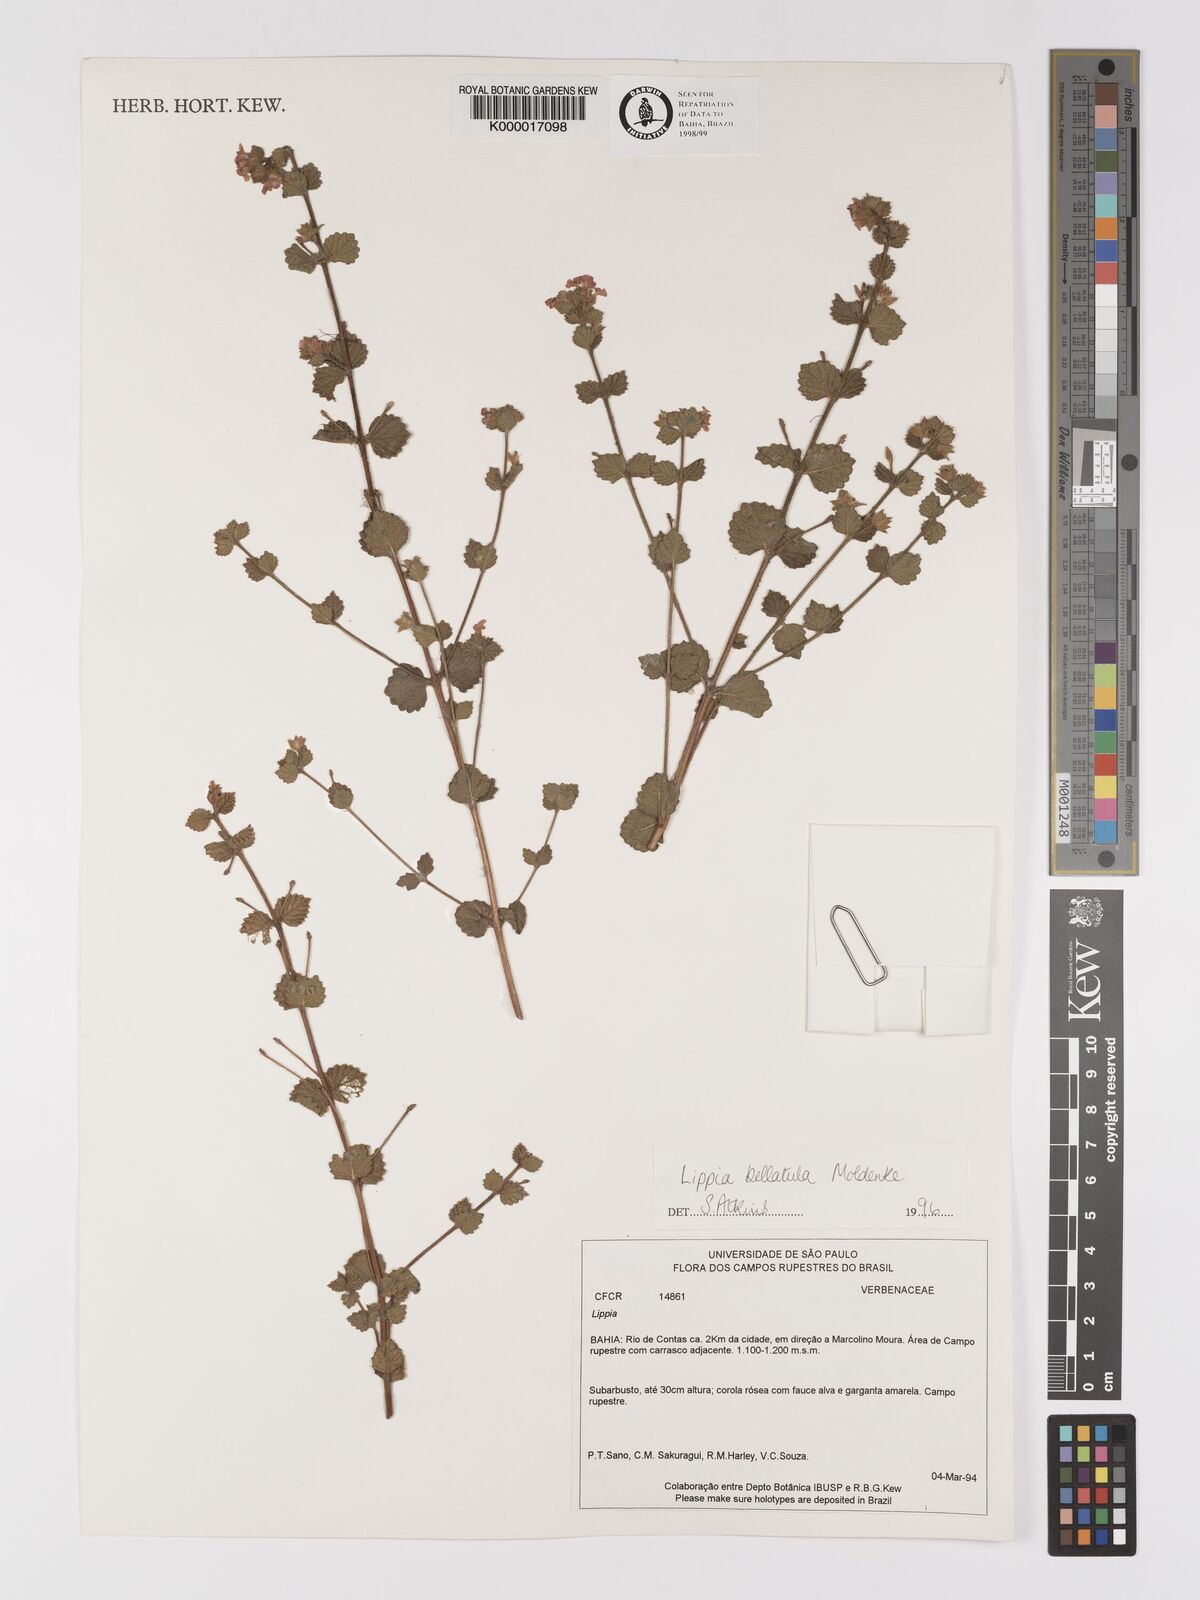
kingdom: Plantae
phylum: Tracheophyta
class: Magnoliopsida
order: Lamiales
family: Verbenaceae
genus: Lippia
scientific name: Lippia bellatula
